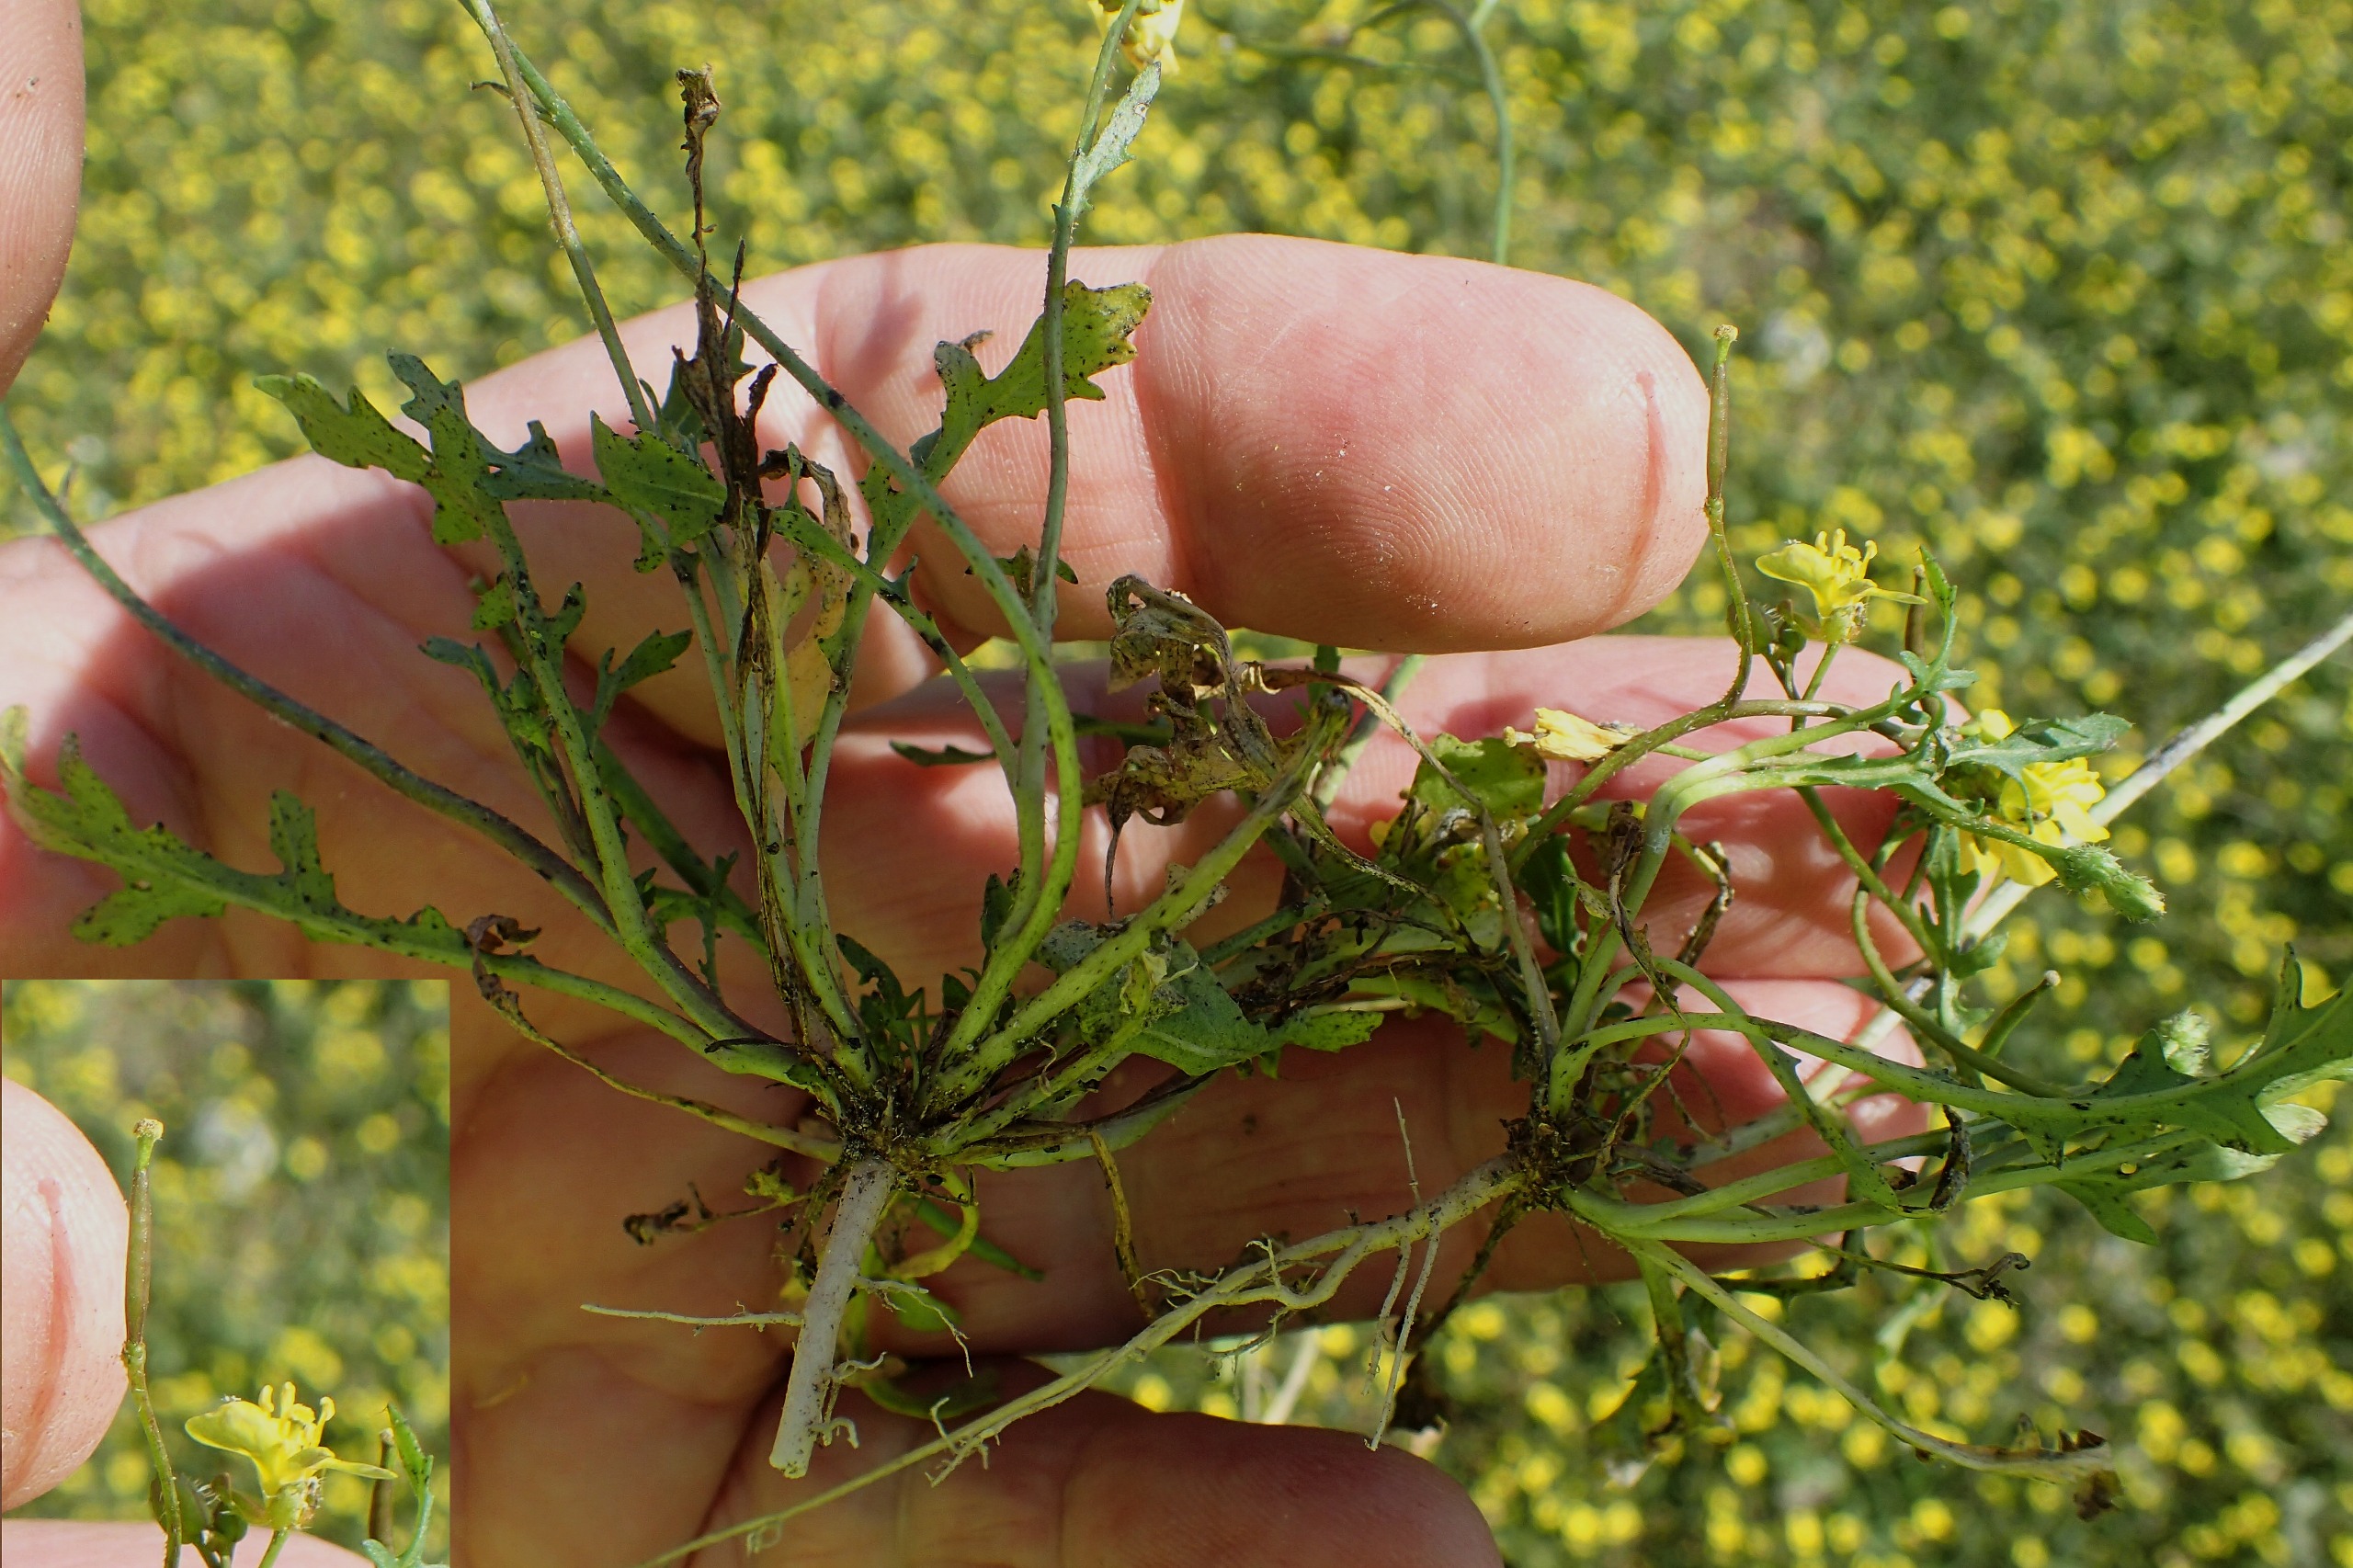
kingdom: Plantae
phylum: Tracheophyta
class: Magnoliopsida
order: Brassicales
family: Brassicaceae
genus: Diplotaxis
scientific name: Diplotaxis muralis
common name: Mursennep
